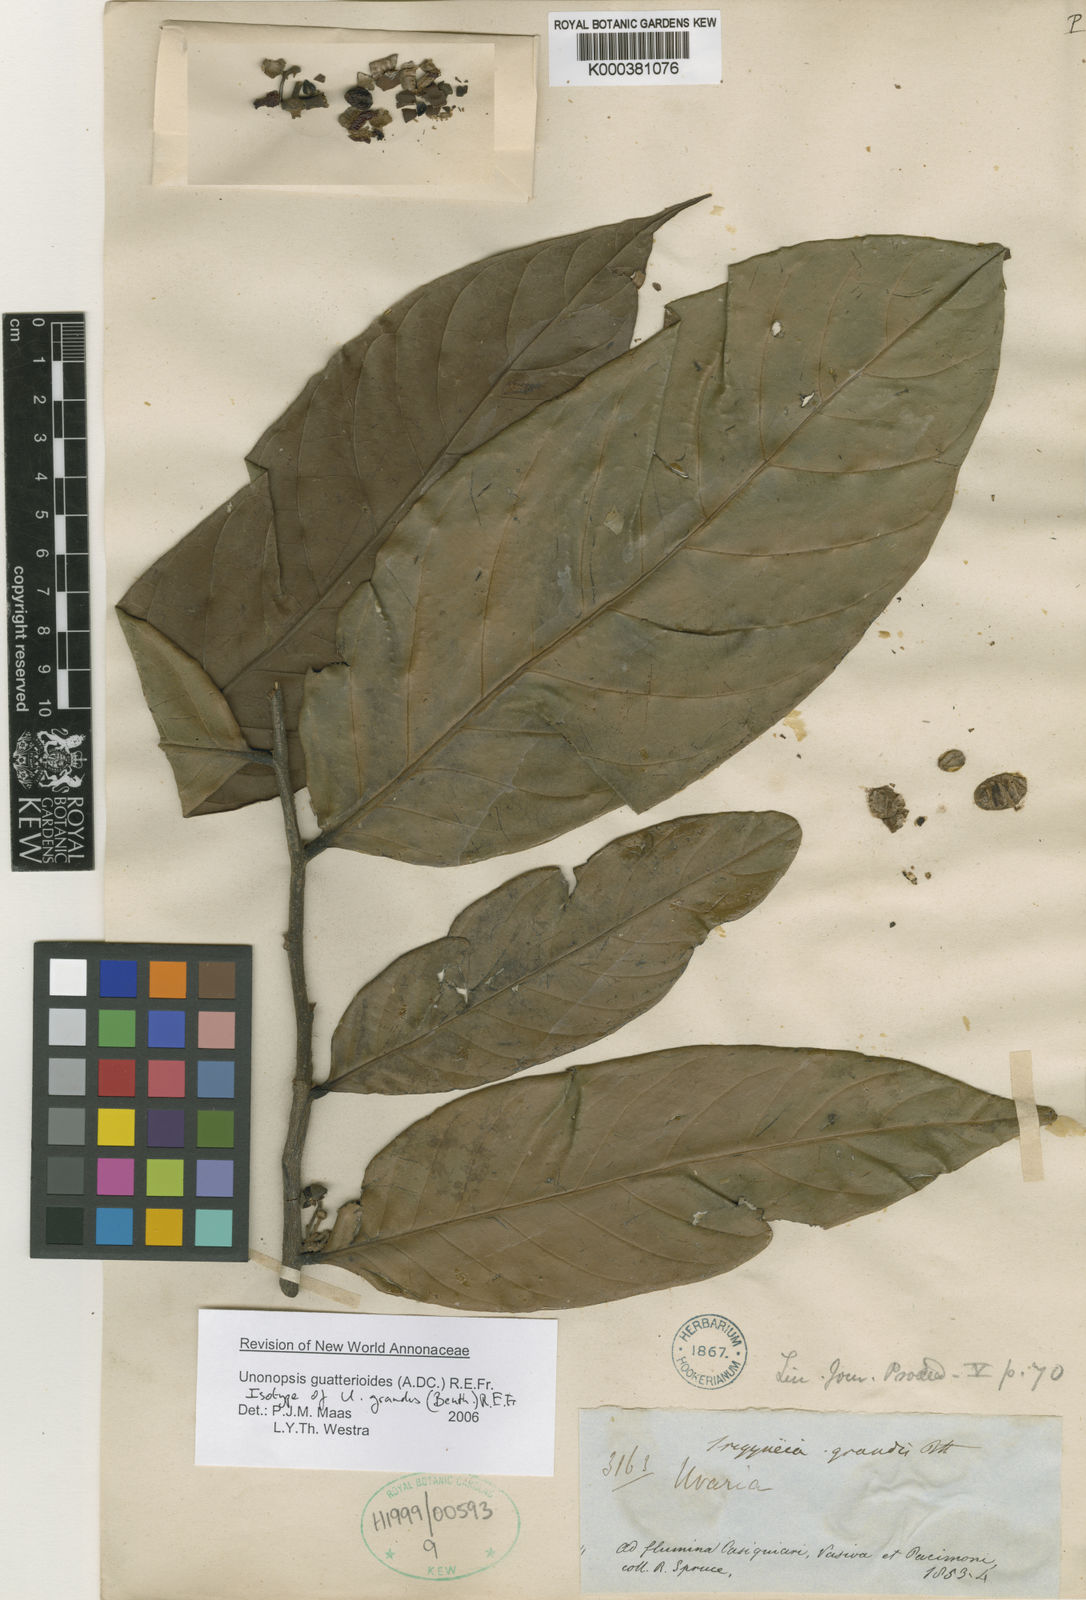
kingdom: Plantae
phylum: Tracheophyta
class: Magnoliopsida
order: Magnoliales
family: Annonaceae
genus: Unonopsis
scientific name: Unonopsis guatterioides
